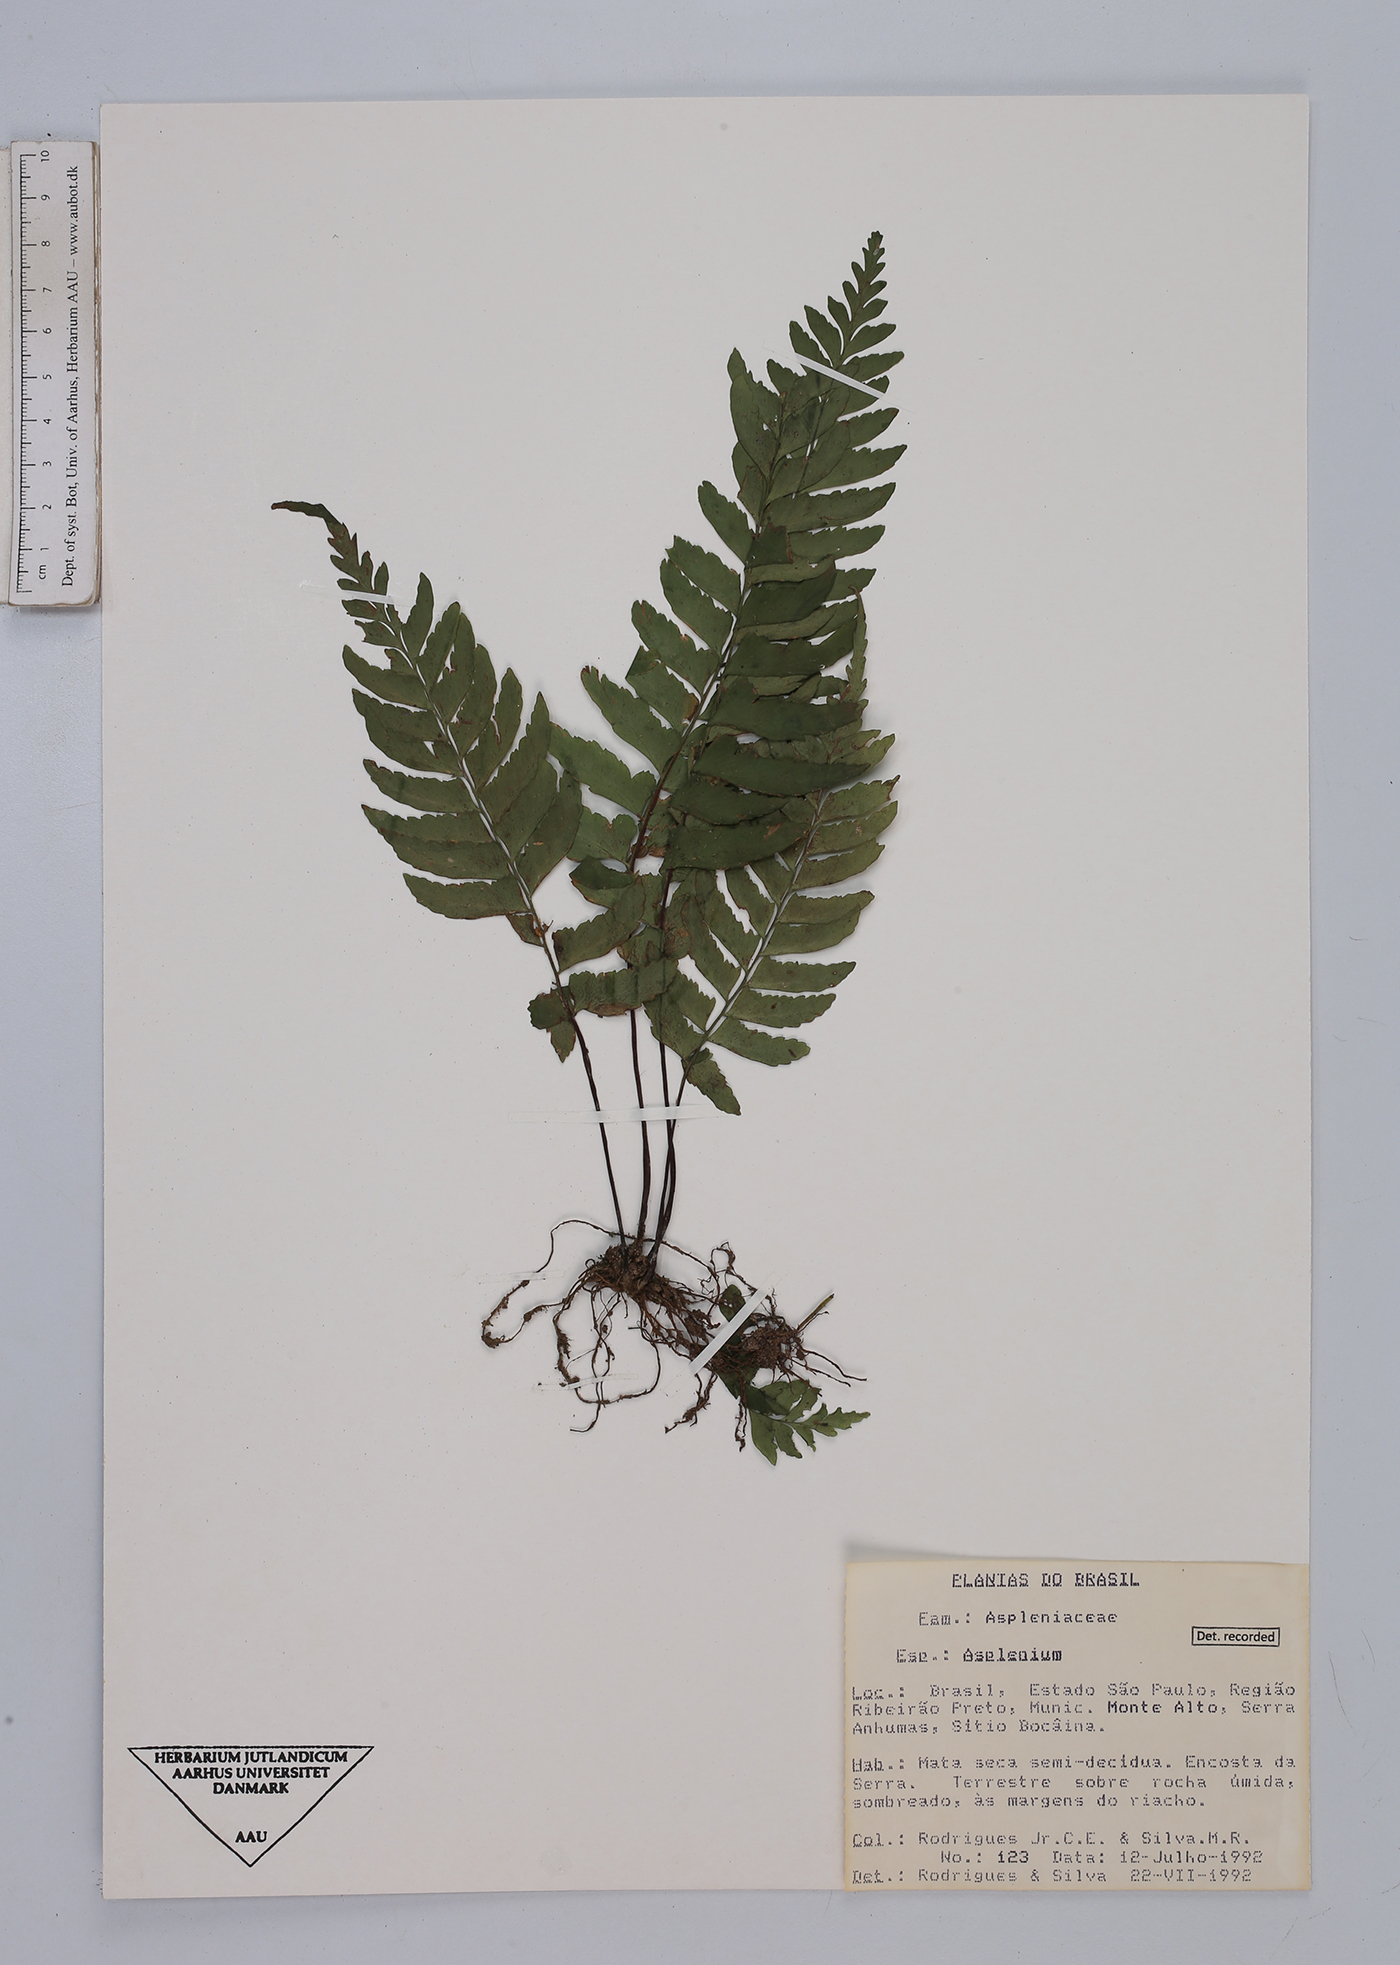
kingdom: Plantae
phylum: Tracheophyta
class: Polypodiopsida
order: Polypodiales
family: Aspleniaceae
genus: Asplenium
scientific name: Asplenium
